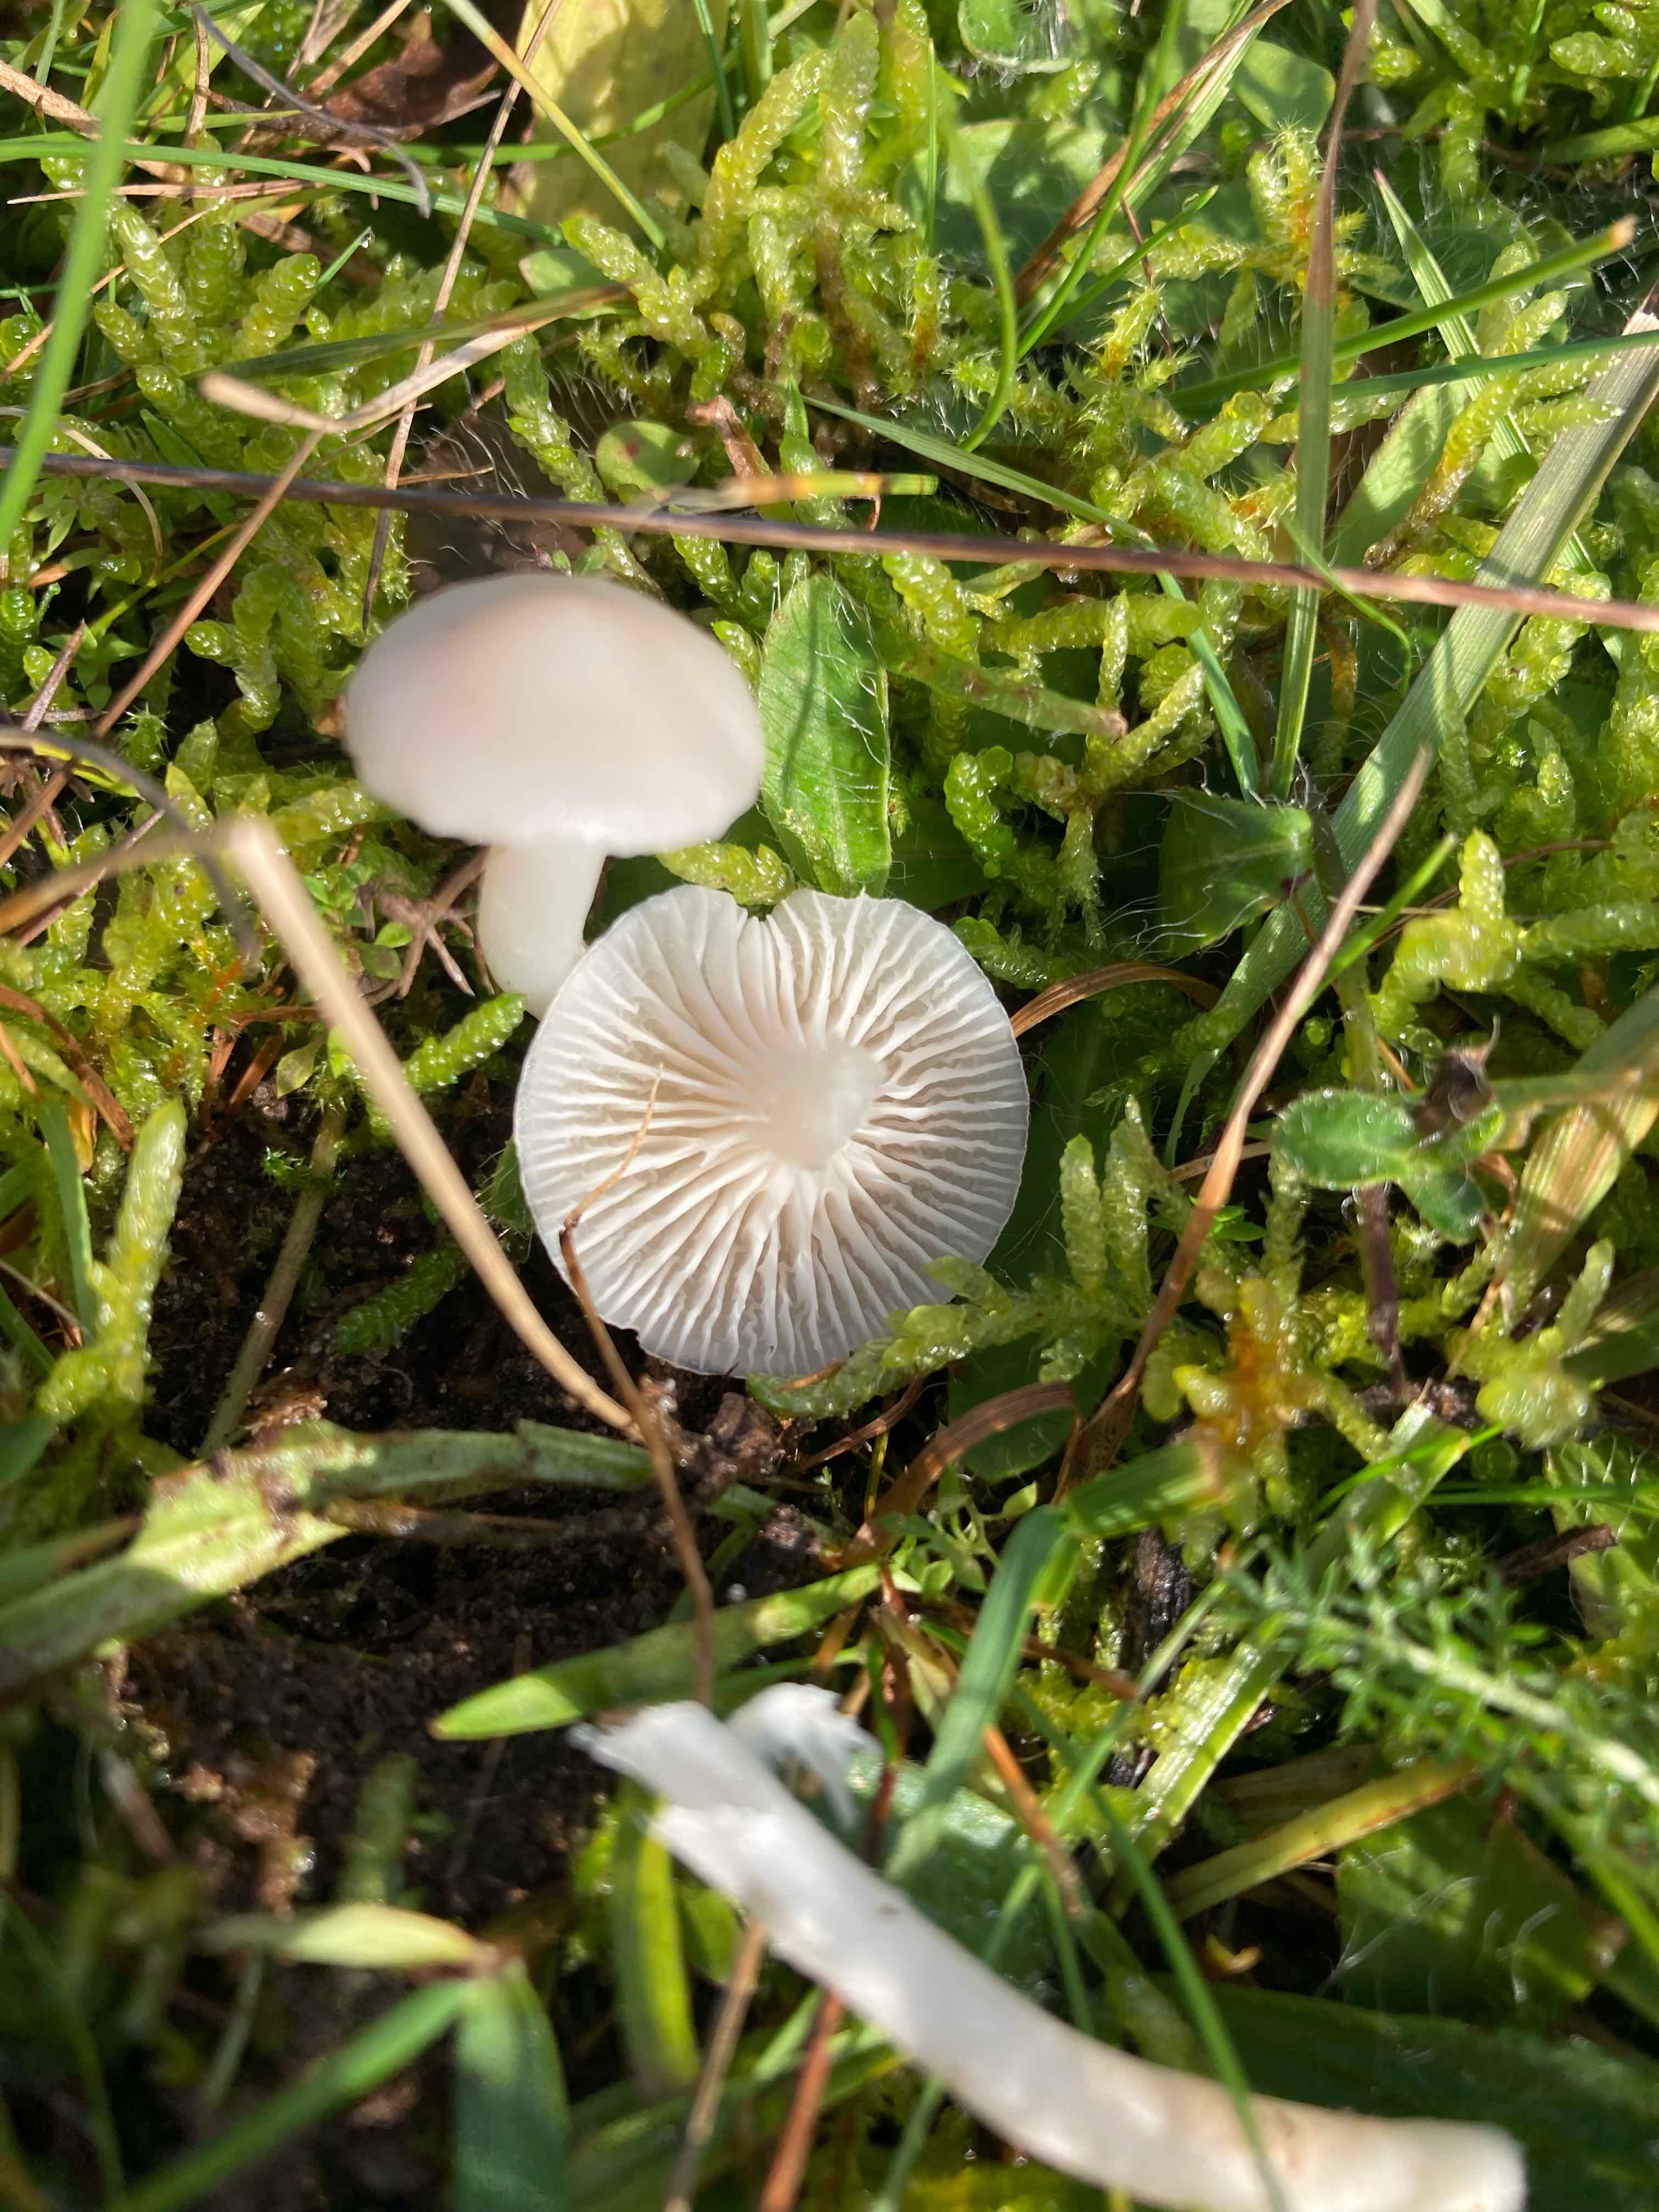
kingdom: Fungi
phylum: Basidiomycota
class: Agaricomycetes
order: Agaricales
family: Hygrophoraceae
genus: Cuphophyllus
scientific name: Cuphophyllus virgineus
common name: snehvid vokshat
